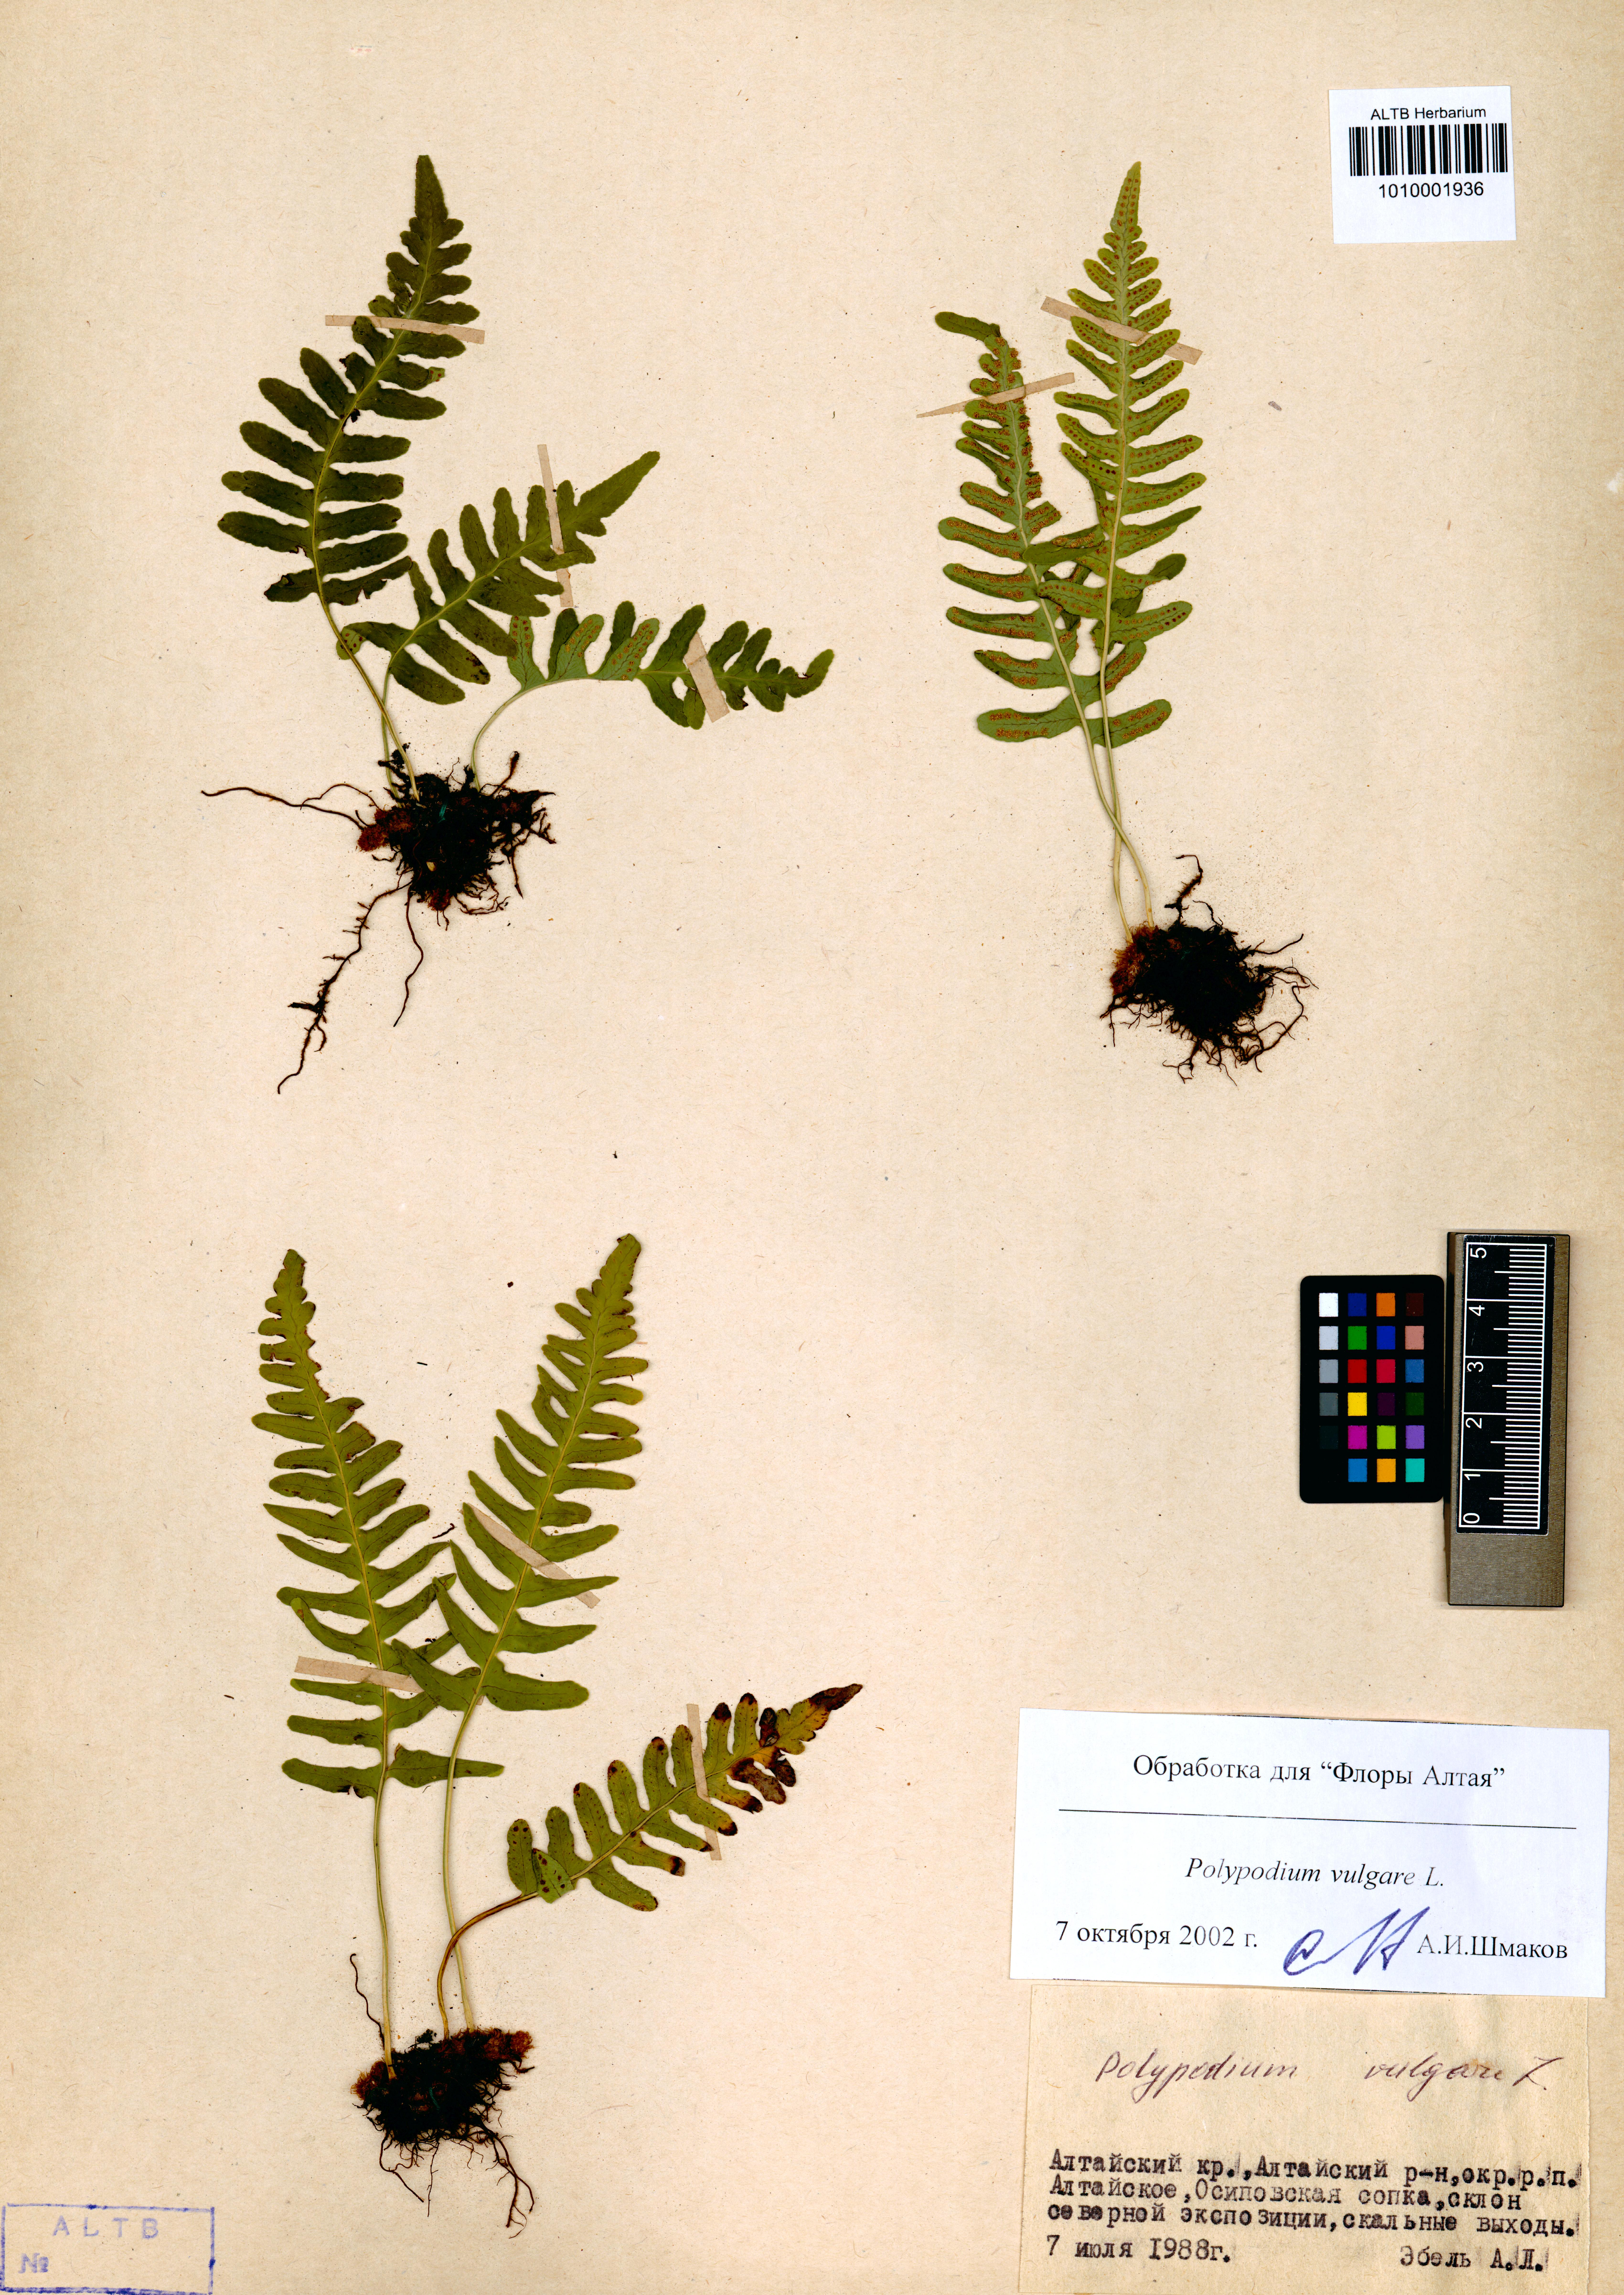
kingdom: Plantae
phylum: Tracheophyta
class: Polypodiopsida
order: Polypodiales
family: Polypodiaceae
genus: Polypodium
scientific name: Polypodium vulgare
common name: Common polypody
